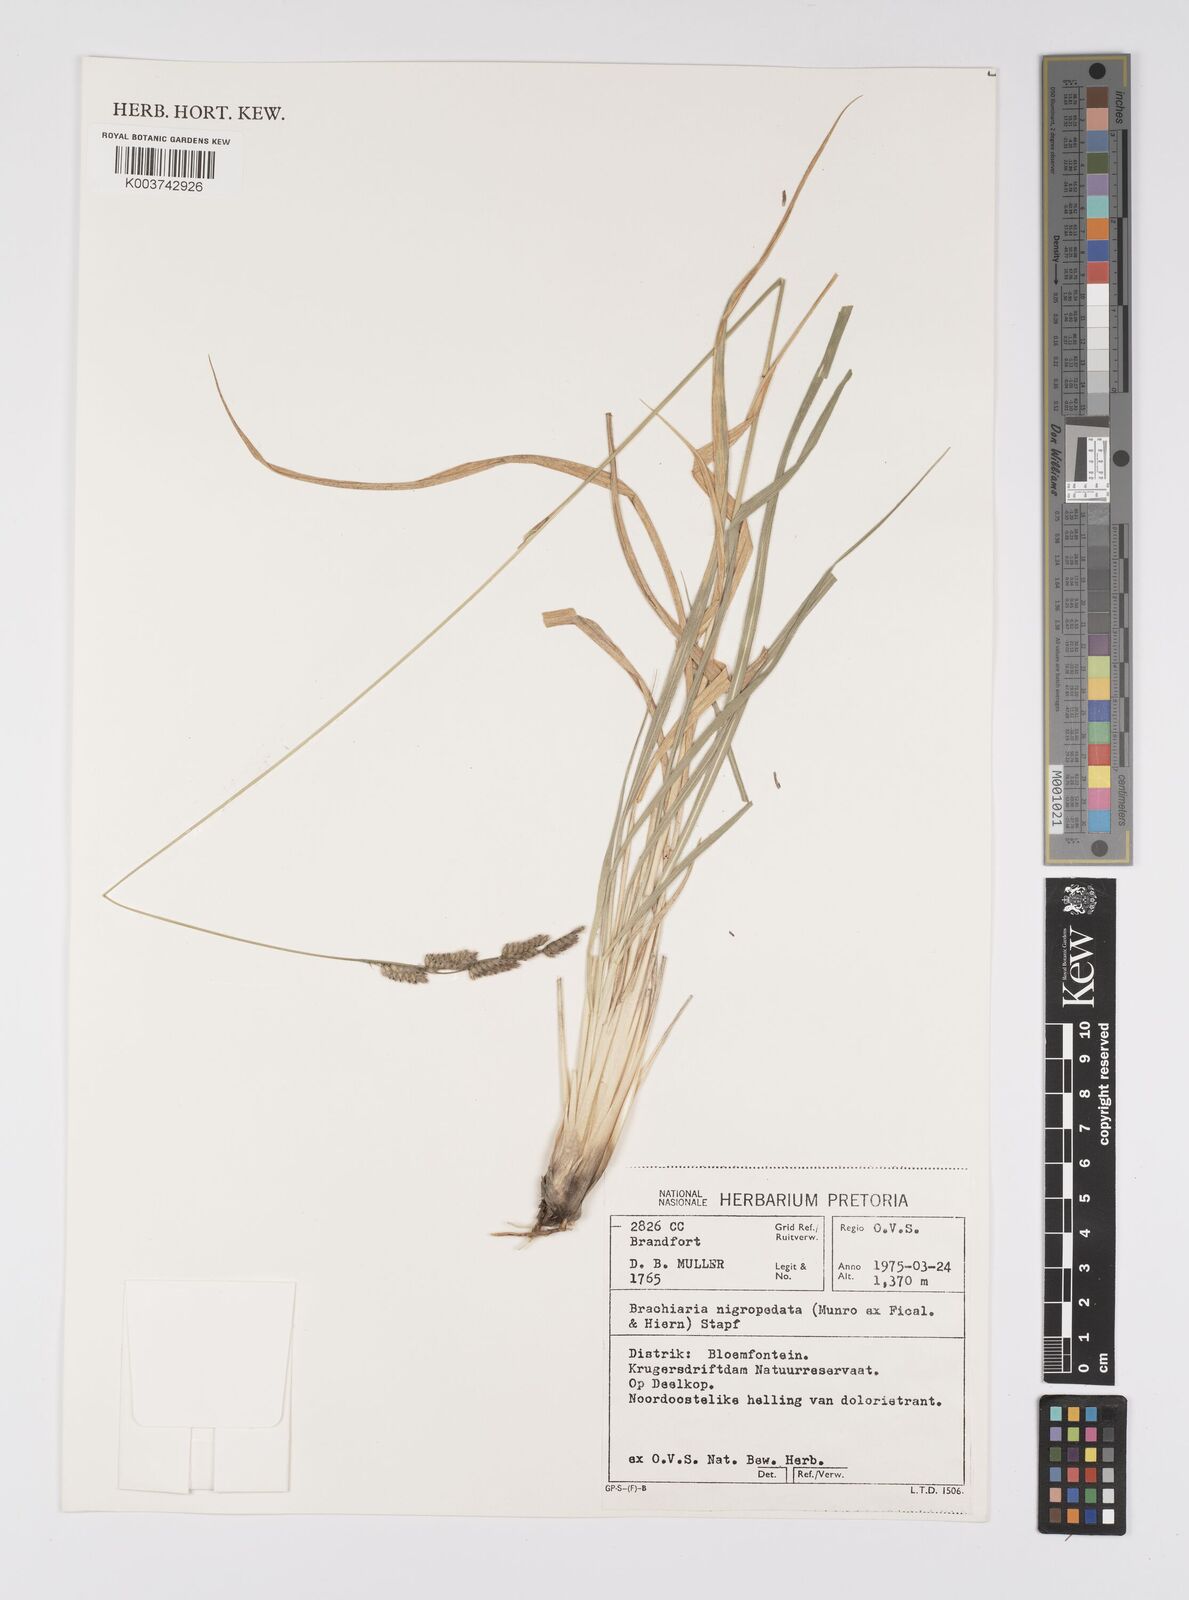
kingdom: Plantae
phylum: Tracheophyta
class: Liliopsida
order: Poales
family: Poaceae
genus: Urochloa
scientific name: Urochloa nigropedata
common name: Spotted signal grass
